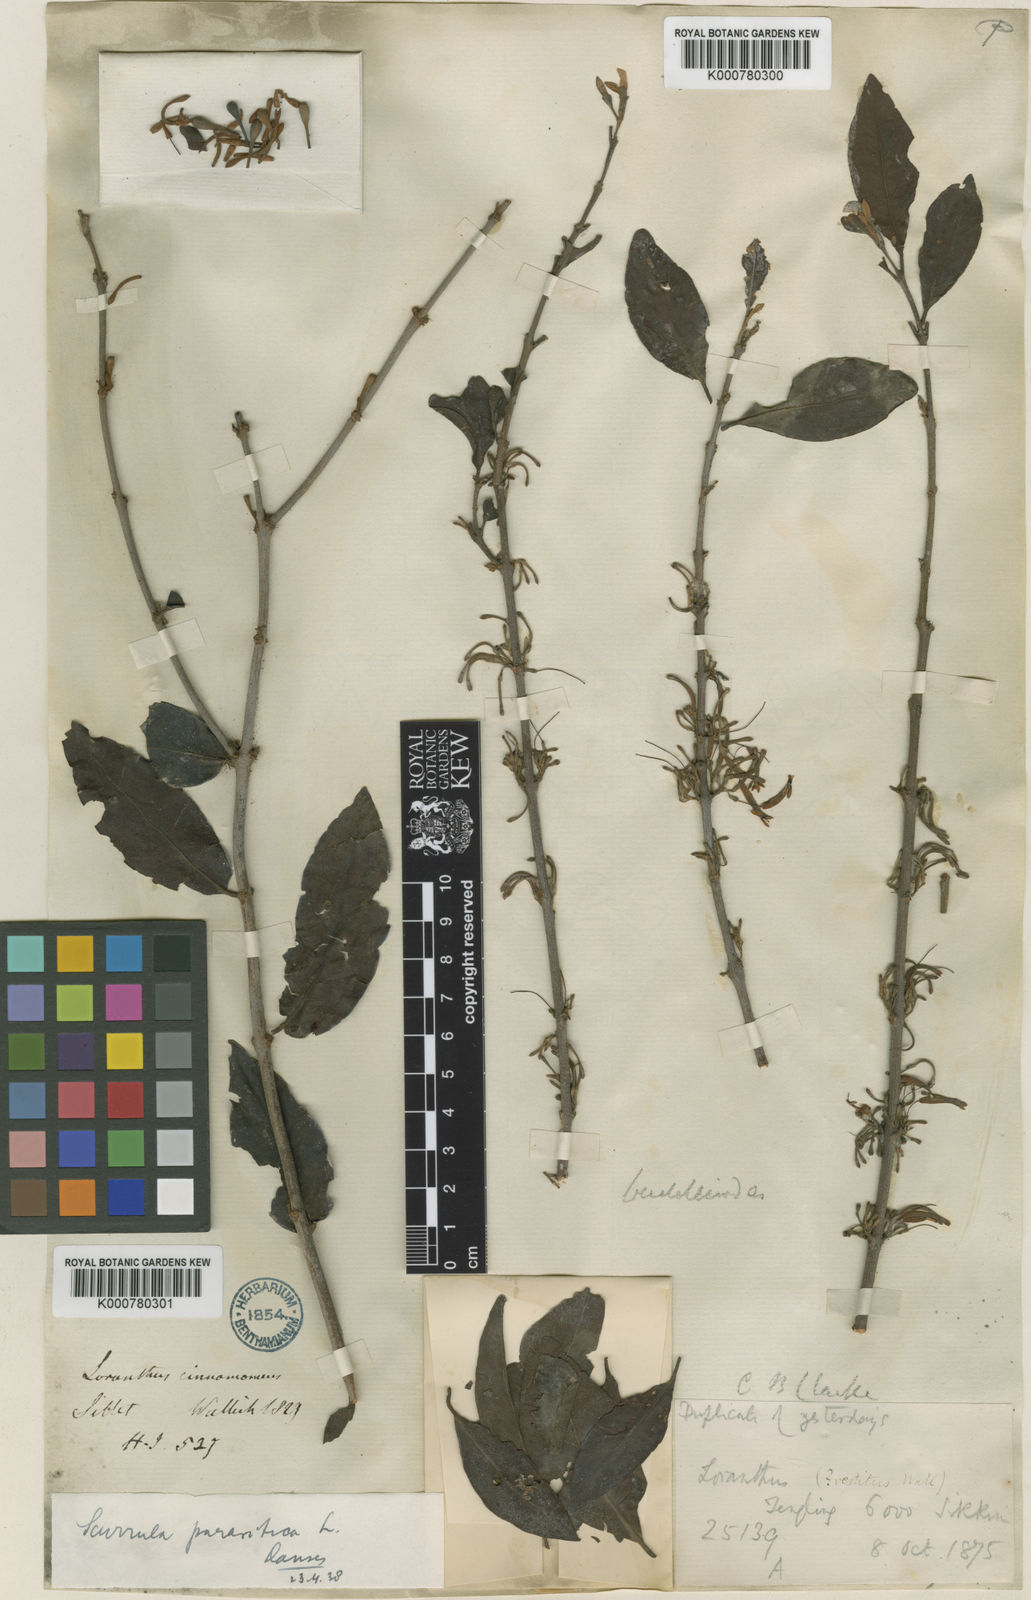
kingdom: Plantae
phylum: Tracheophyta
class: Magnoliopsida
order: Santalales
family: Loranthaceae
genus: Scurrula
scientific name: Scurrula parasitica
